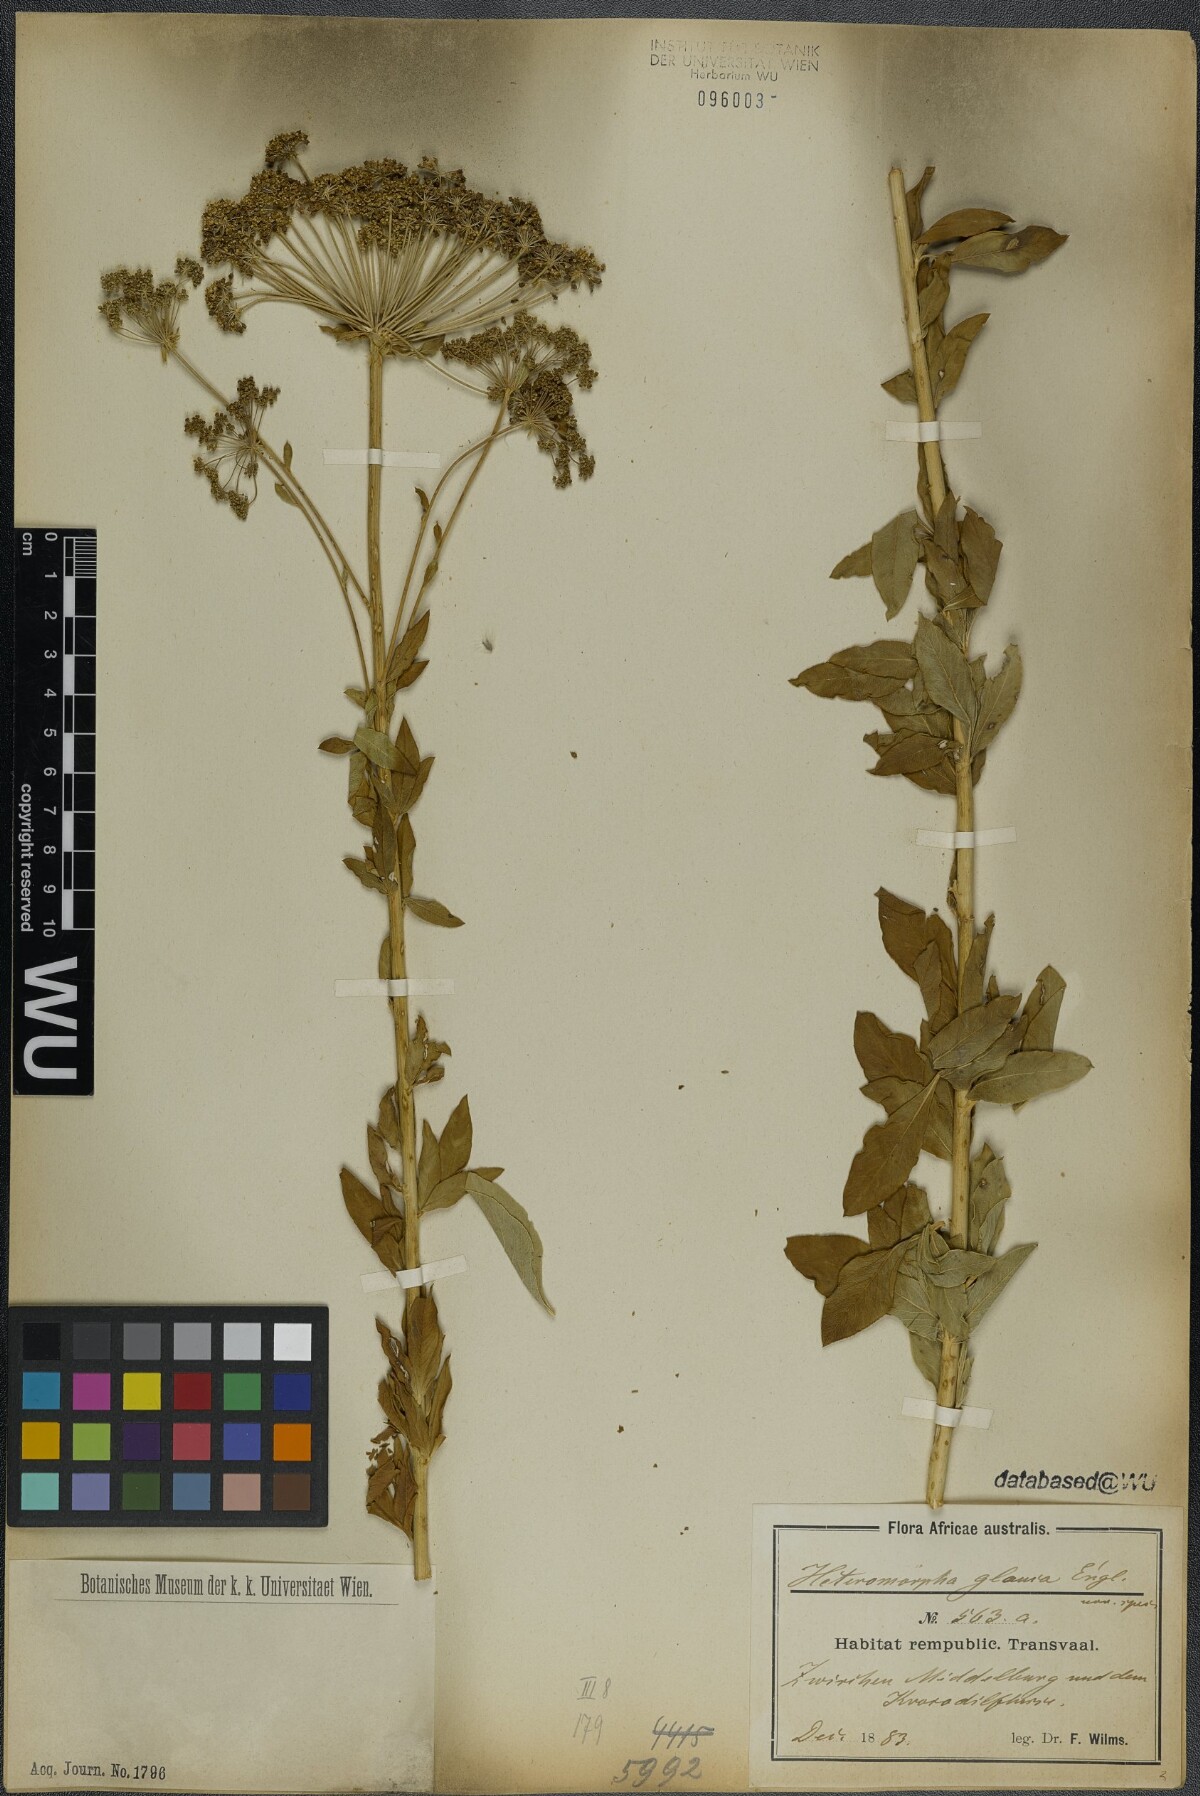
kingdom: Plantae
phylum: Tracheophyta
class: Magnoliopsida
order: Apiales
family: Apiaceae
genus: Heteromorpha
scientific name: Heteromorpha involucrata
